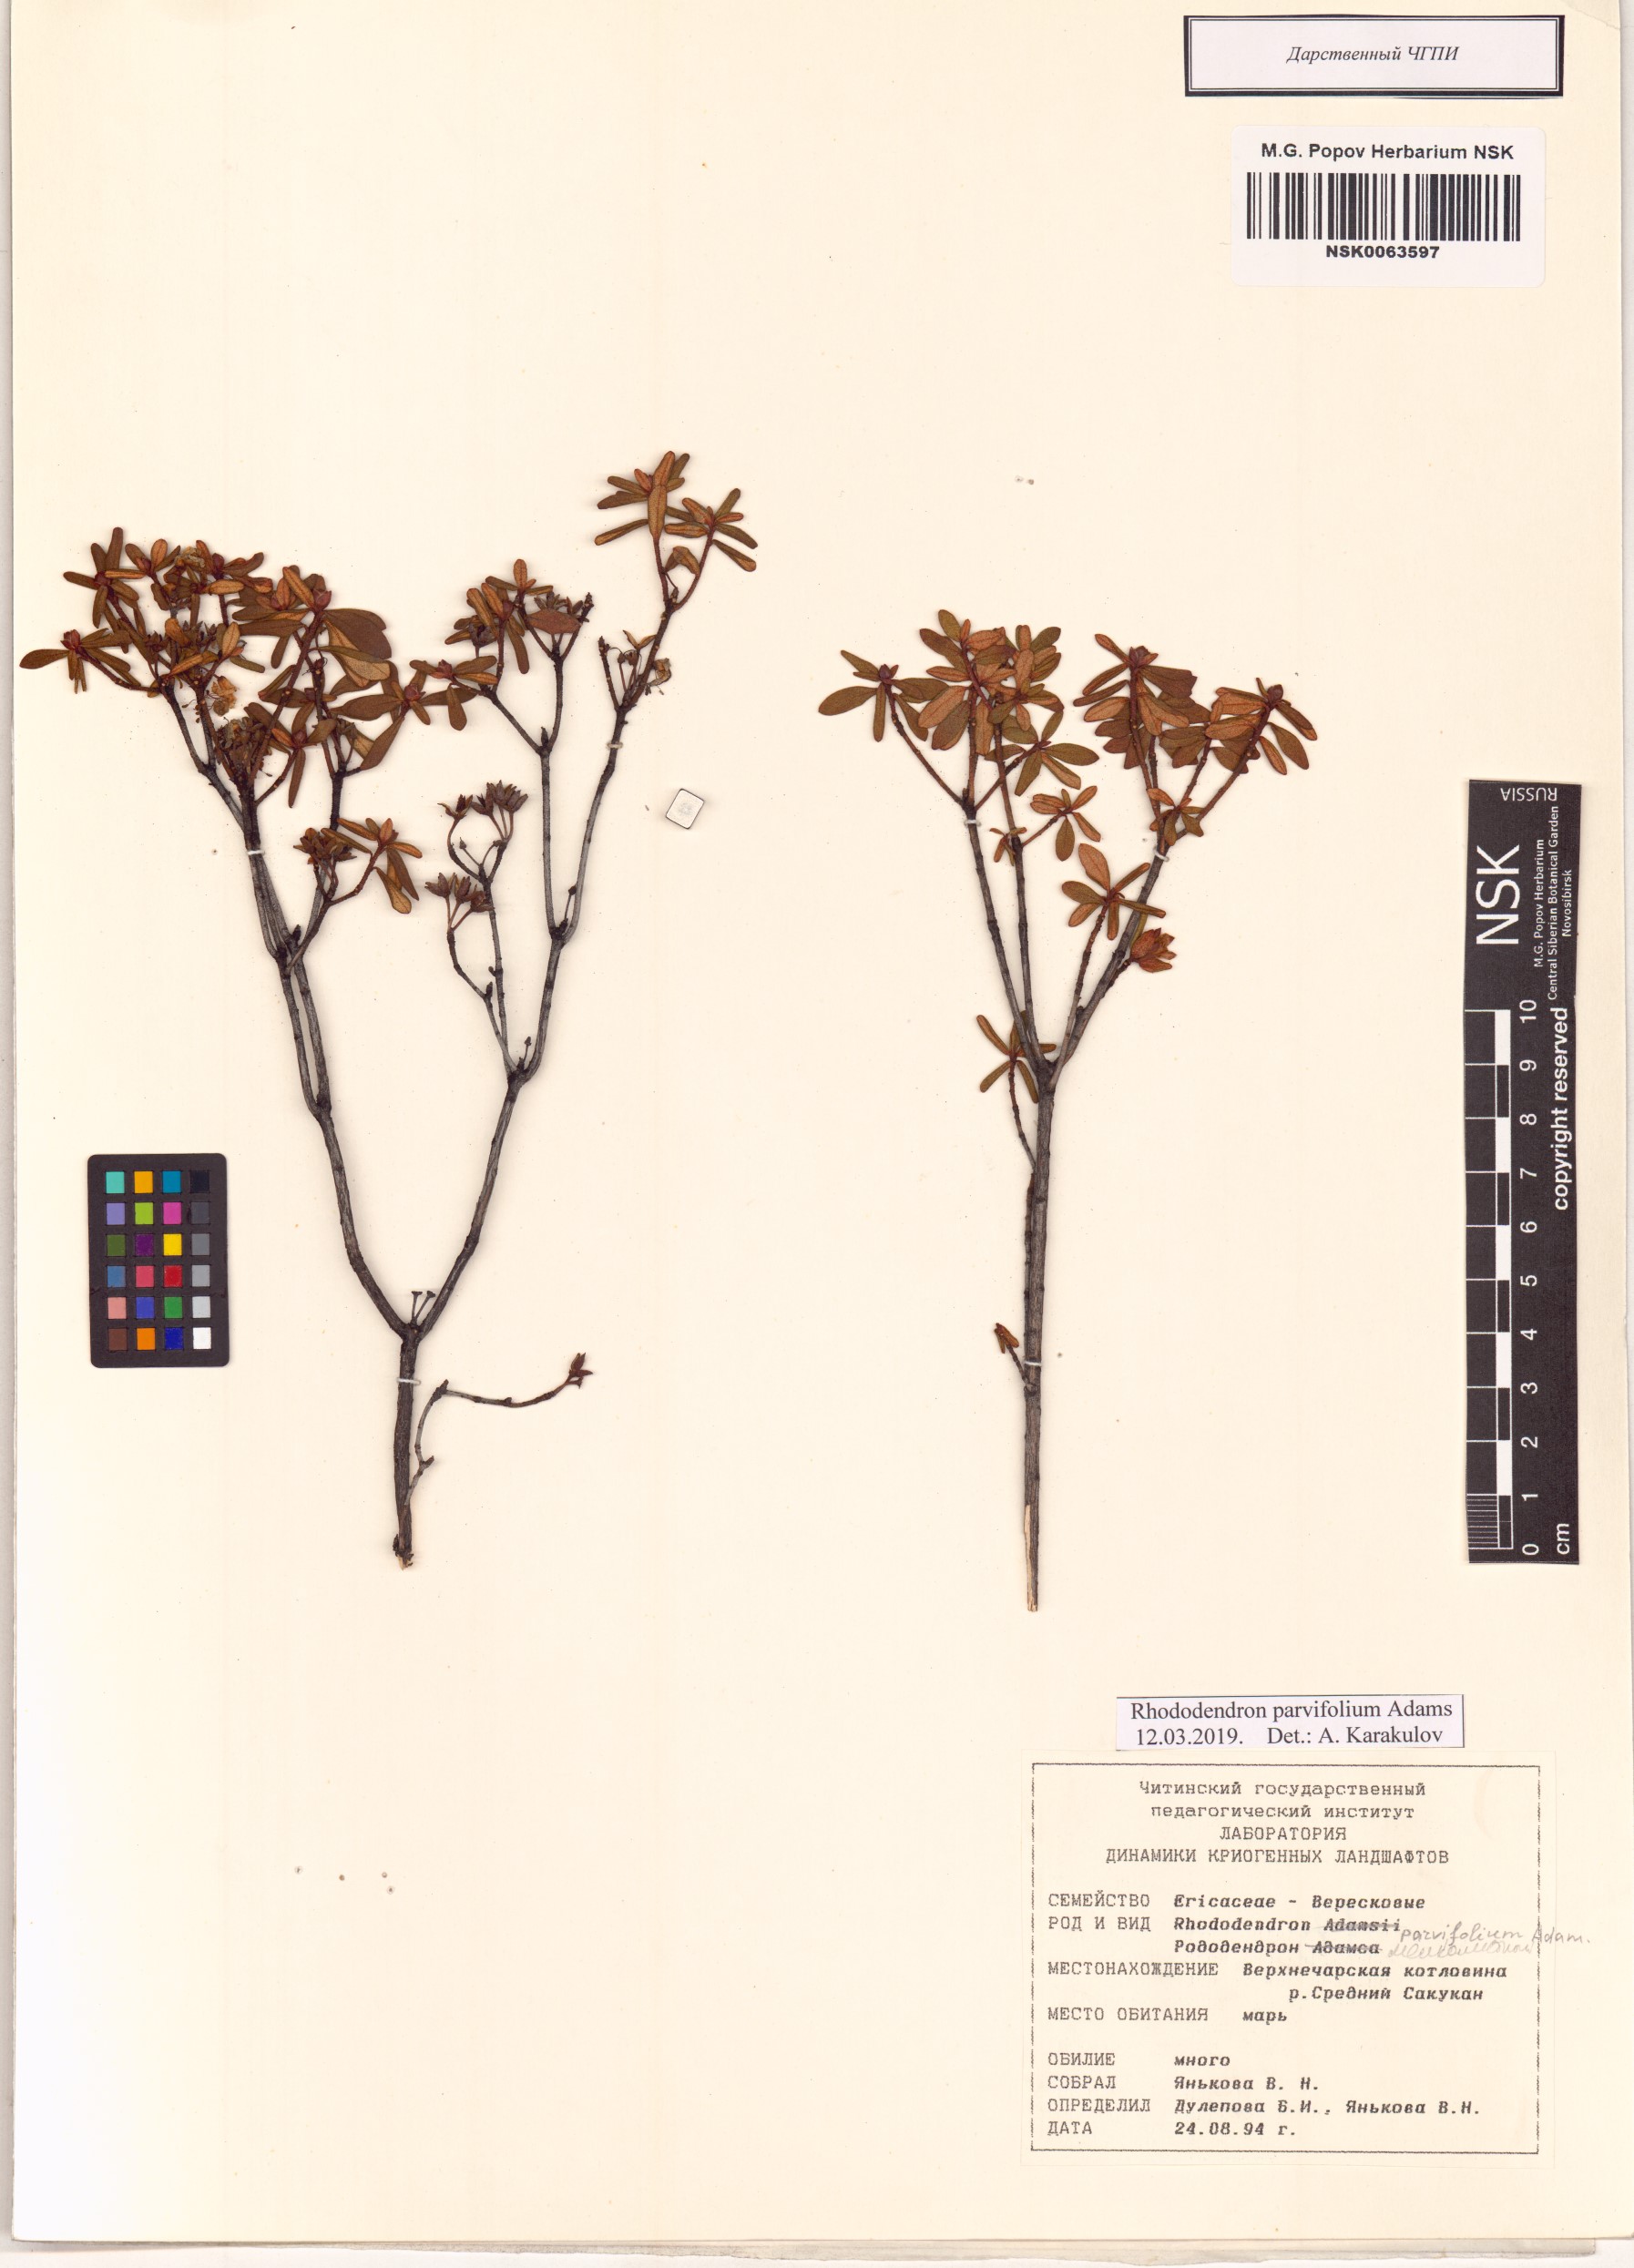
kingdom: Plantae
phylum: Tracheophyta
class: Magnoliopsida
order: Ericales
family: Ericaceae
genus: Rhododendron
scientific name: Rhododendron parvifolium
